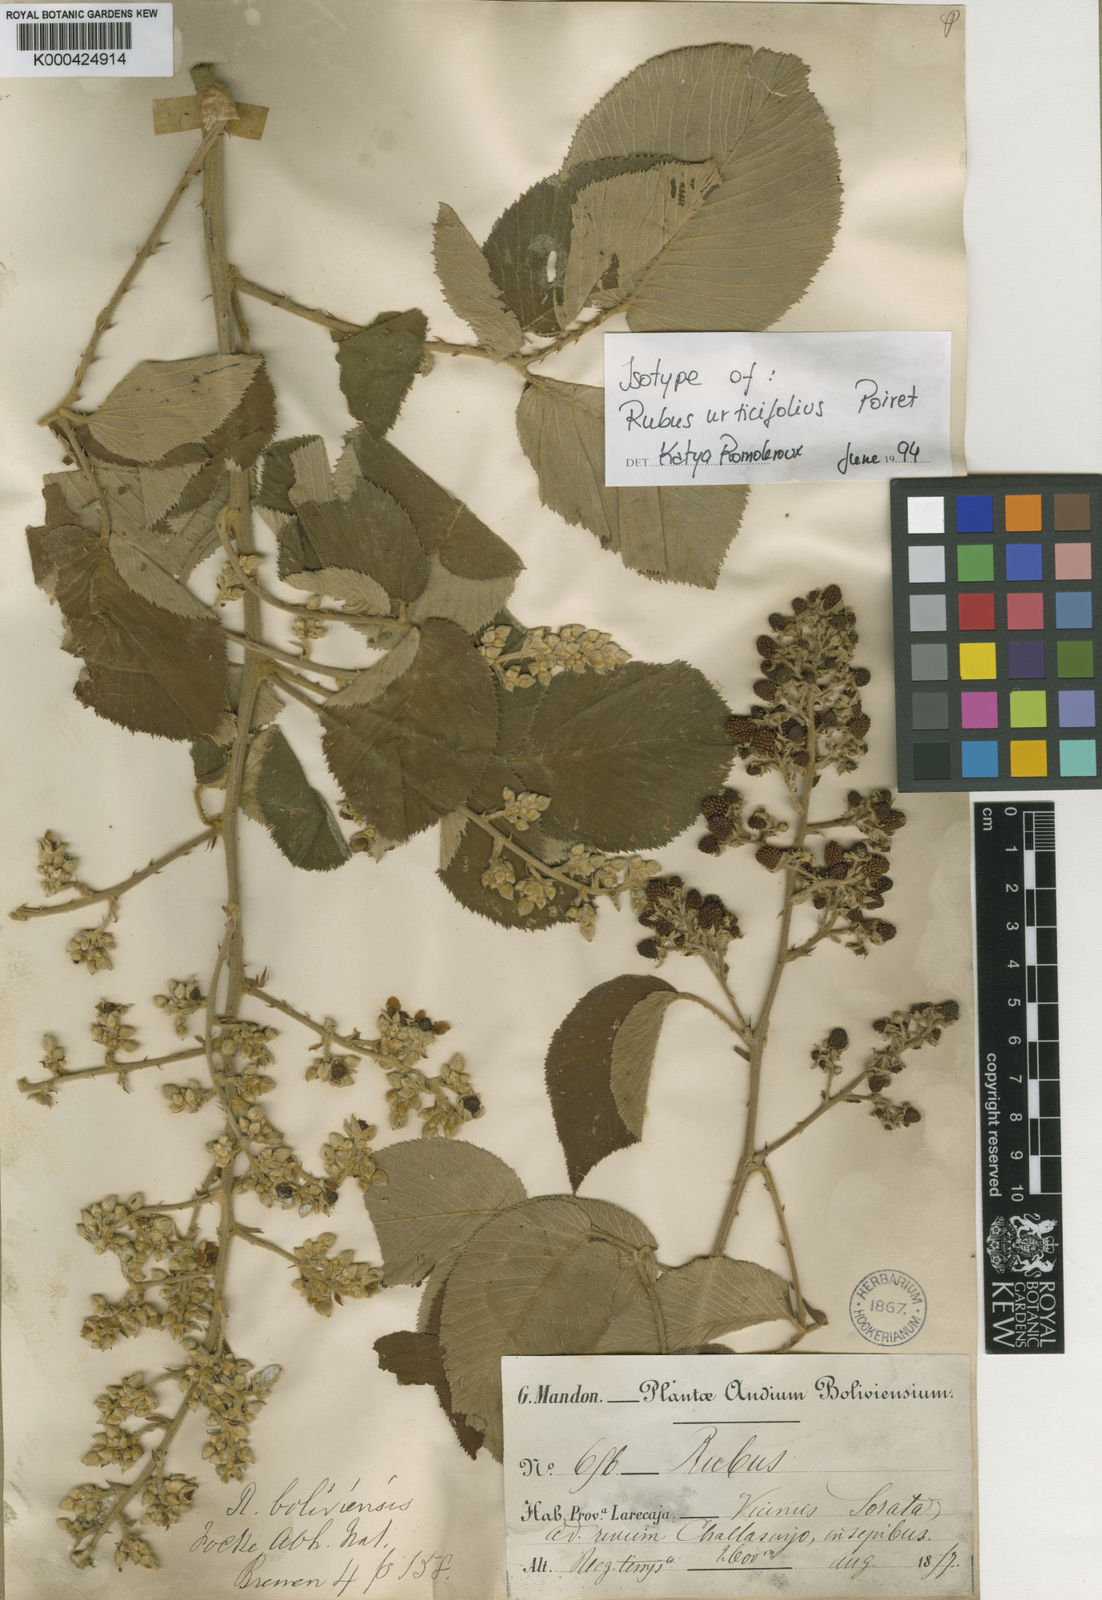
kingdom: Plantae
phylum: Tracheophyta
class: Magnoliopsida
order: Rosales
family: Rosaceae
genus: Rubus
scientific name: Rubus urticifolius
